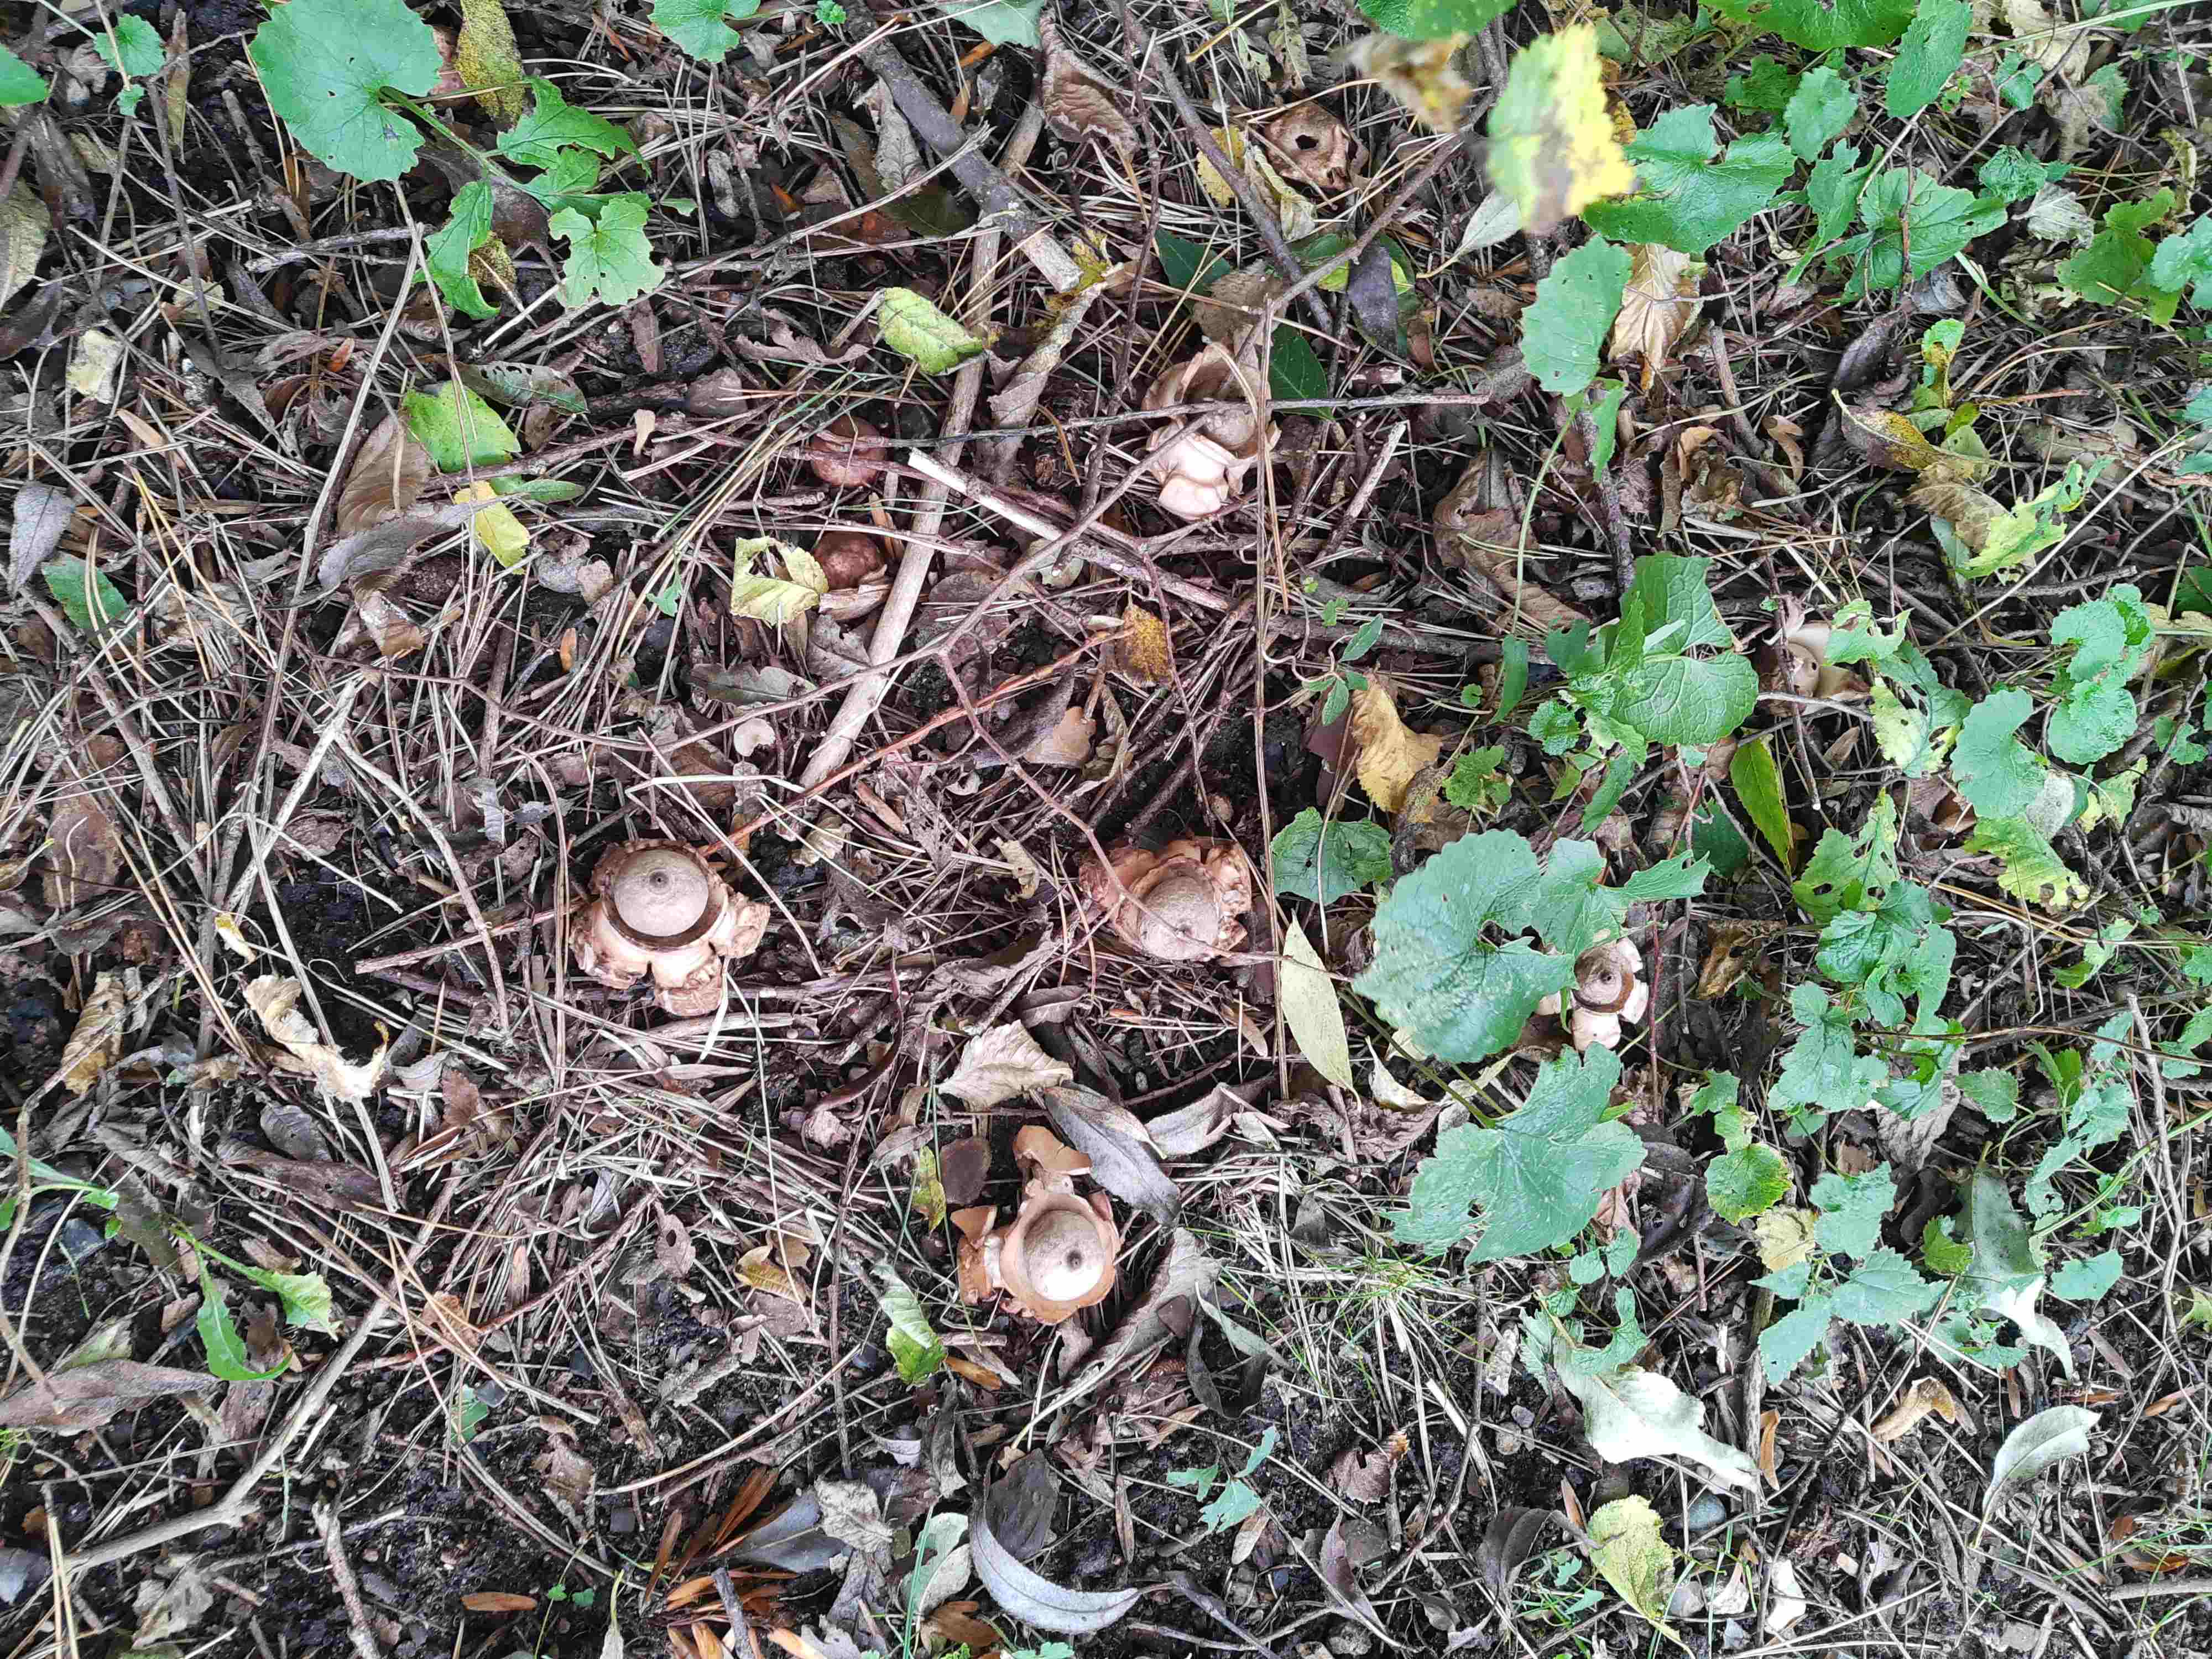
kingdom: Fungi
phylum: Basidiomycota
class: Agaricomycetes
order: Geastrales
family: Geastraceae
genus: Geastrum
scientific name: Geastrum michelianum
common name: kødet stjernebold
